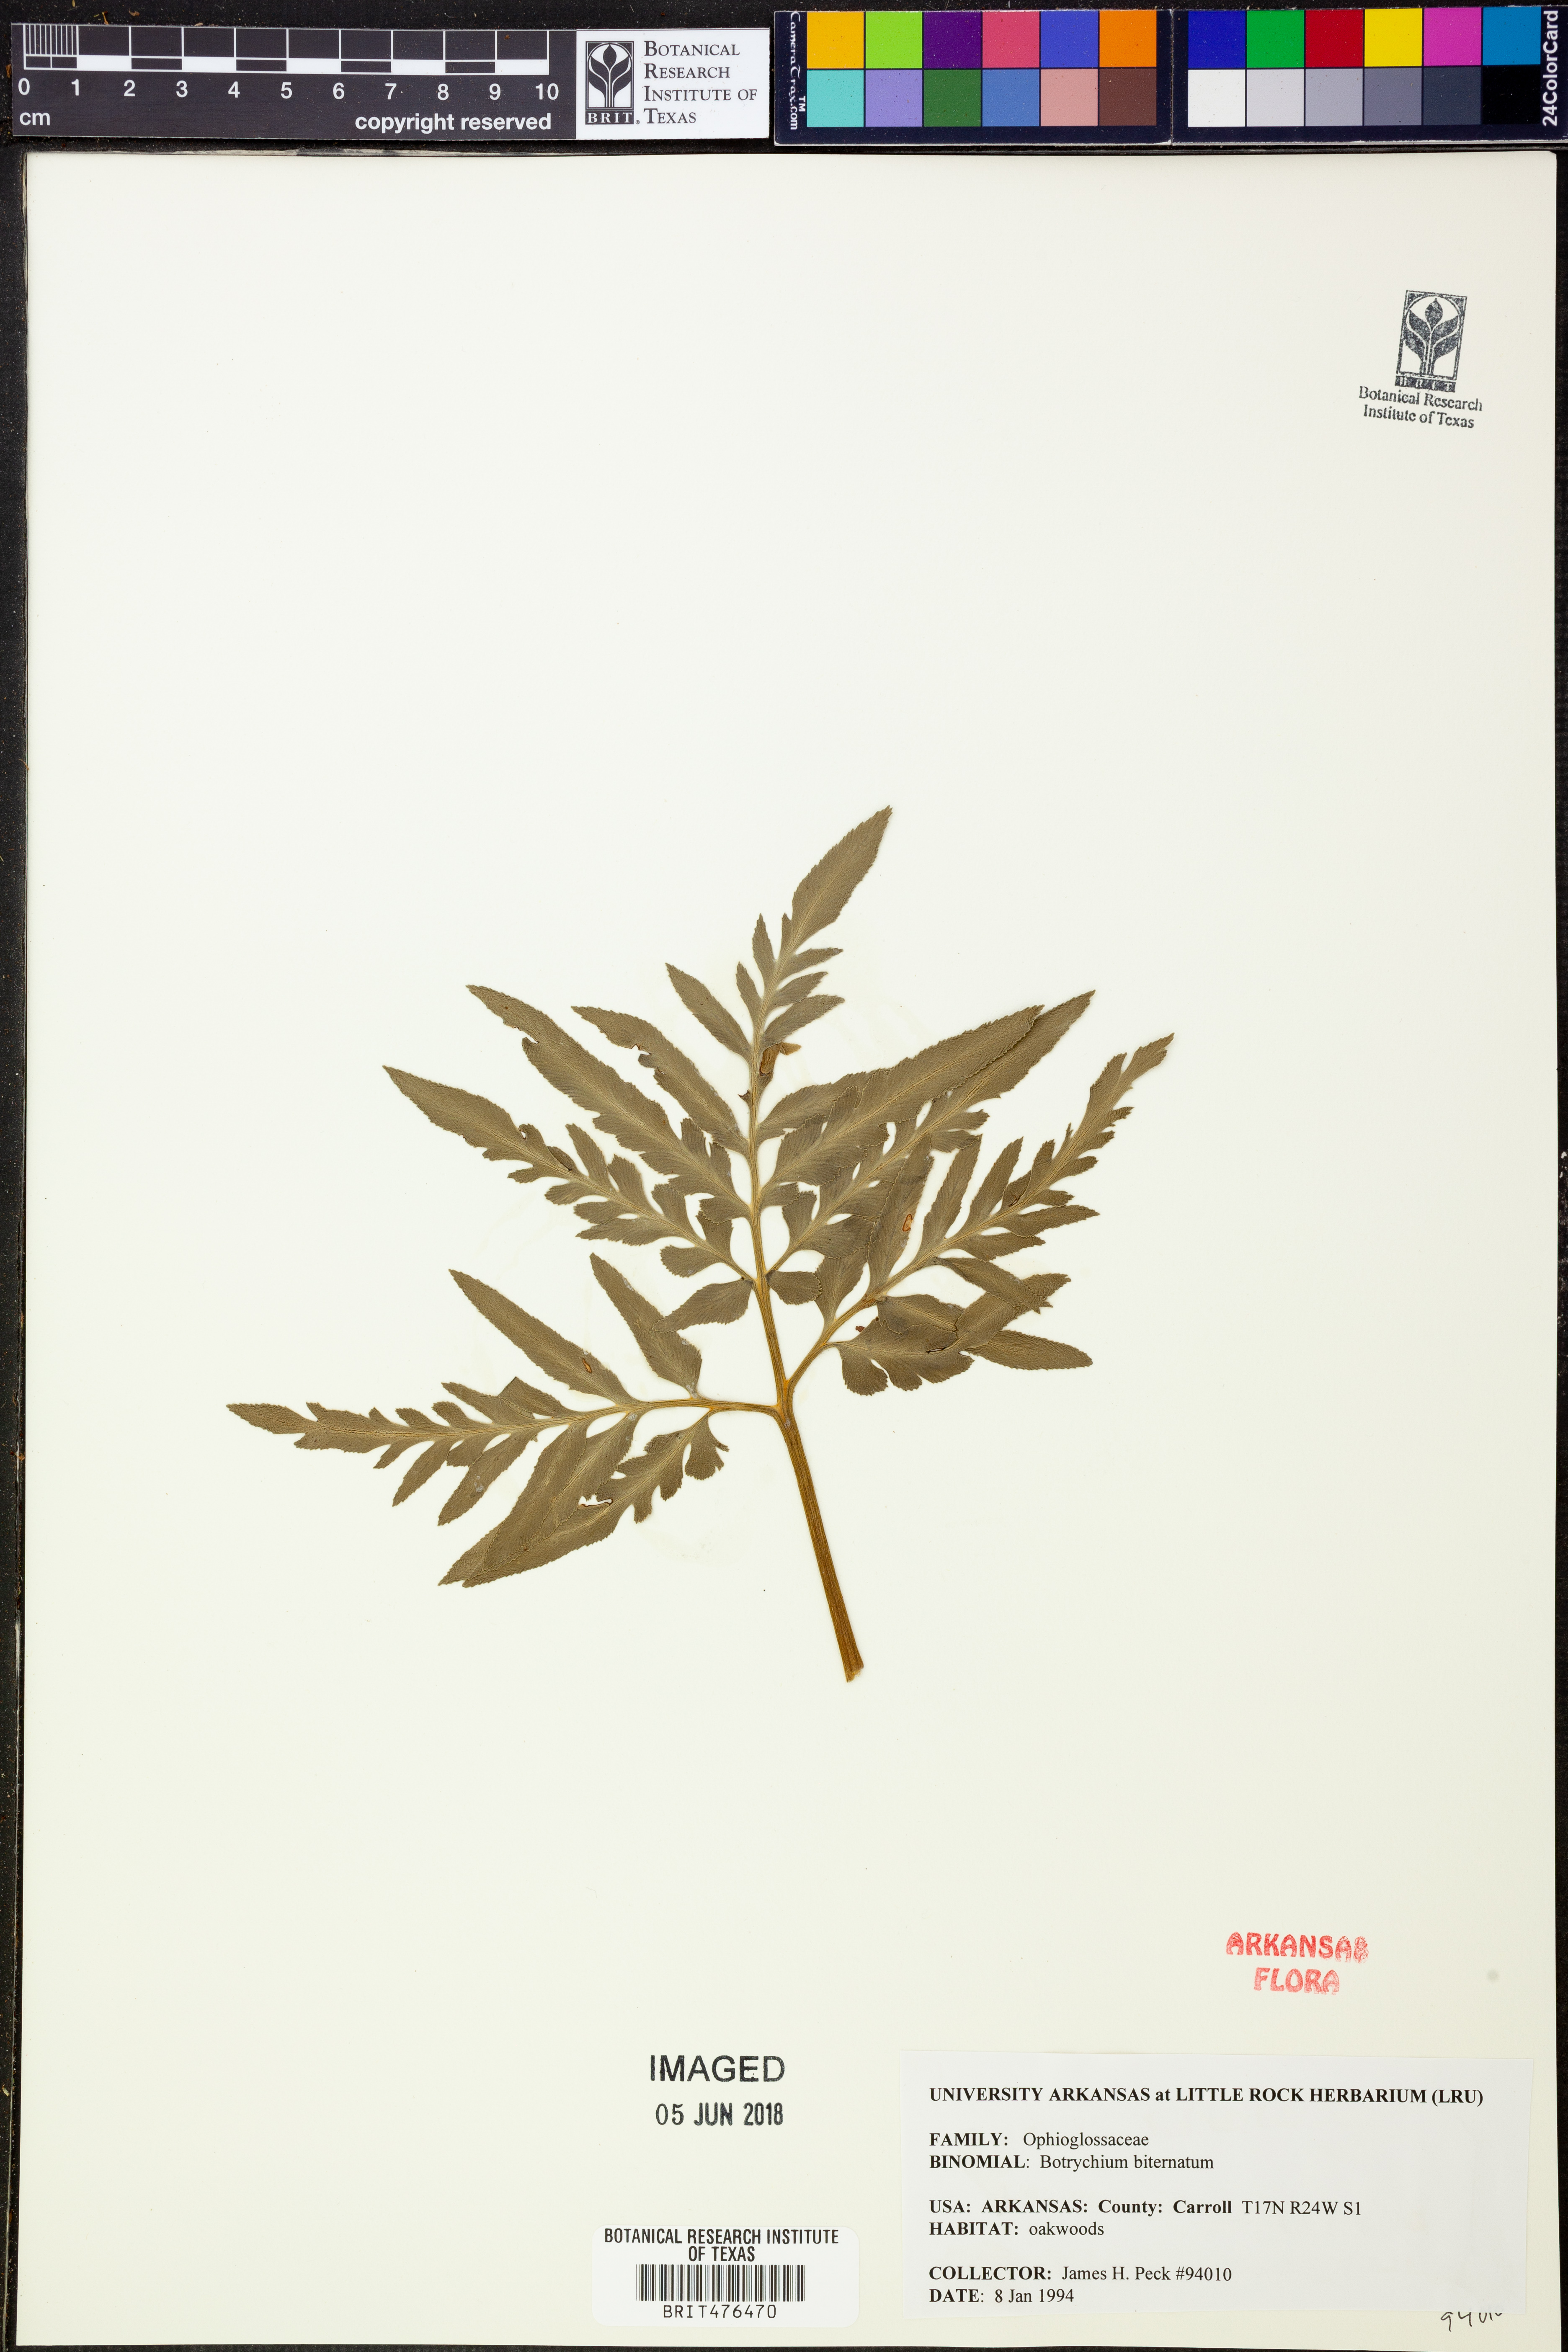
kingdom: Plantae
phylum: Tracheophyta
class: Polypodiopsida
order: Ophioglossales
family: Ophioglossaceae
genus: Sceptridium
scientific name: Sceptridium biternatum
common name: Sparse-lobed grapefern
